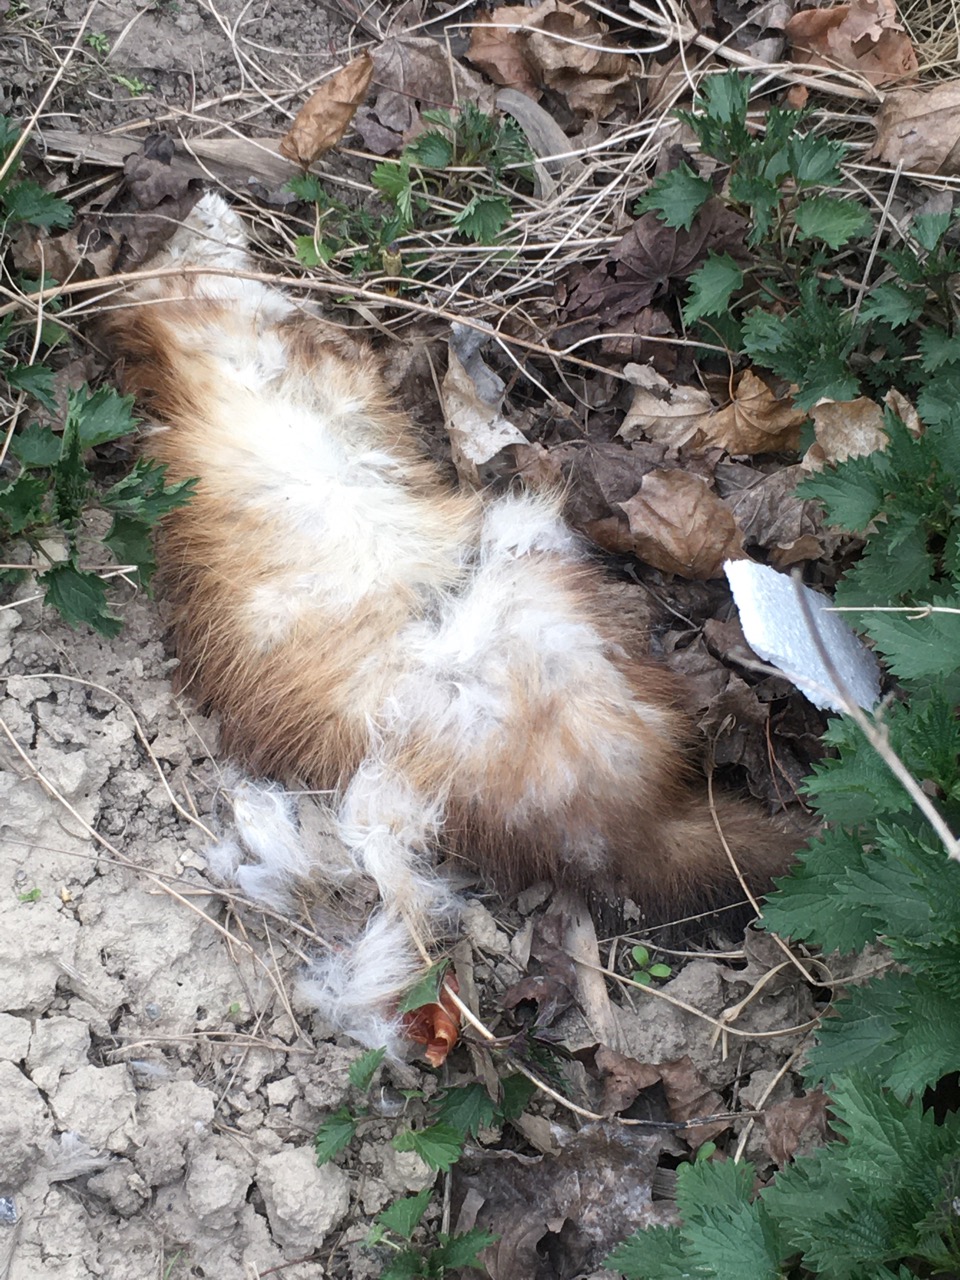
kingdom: Animalia
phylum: Chordata
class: Mammalia
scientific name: Mammalia
